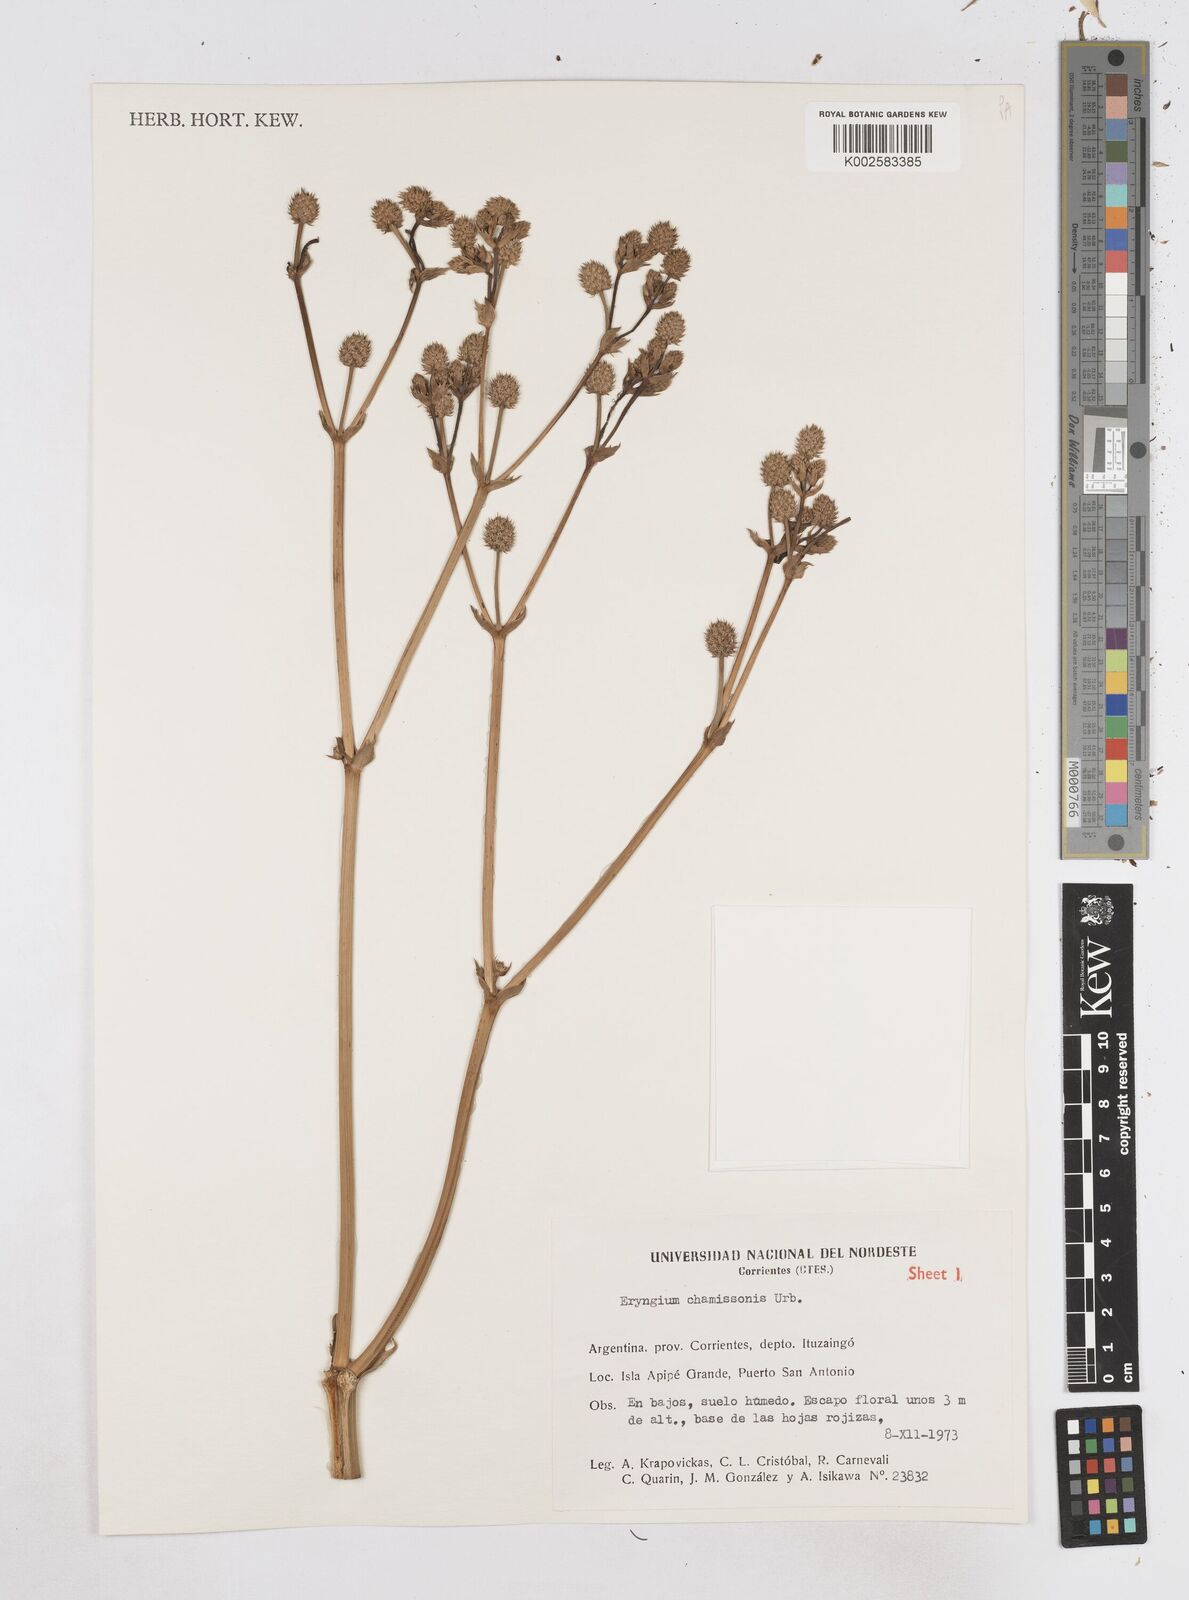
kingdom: Plantae
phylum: Tracheophyta
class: Magnoliopsida
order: Apiales
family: Apiaceae
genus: Eryngium
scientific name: Eryngium chamissonis
